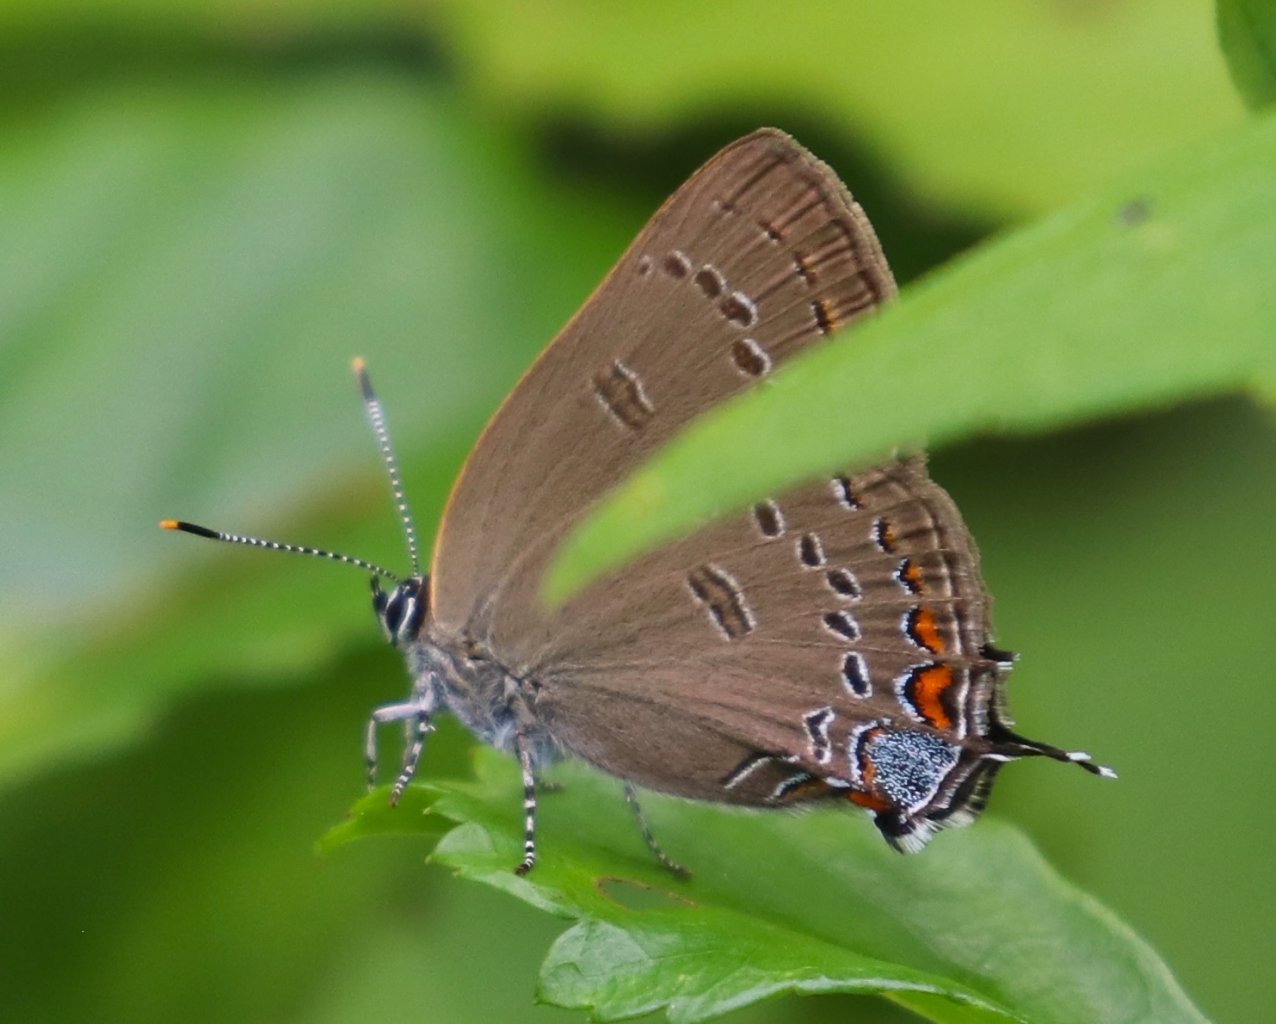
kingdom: Animalia
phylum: Arthropoda
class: Insecta
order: Lepidoptera
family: Lycaenidae
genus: Satyrium
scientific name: Satyrium edwardsii
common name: Edwards' Hairstreak
